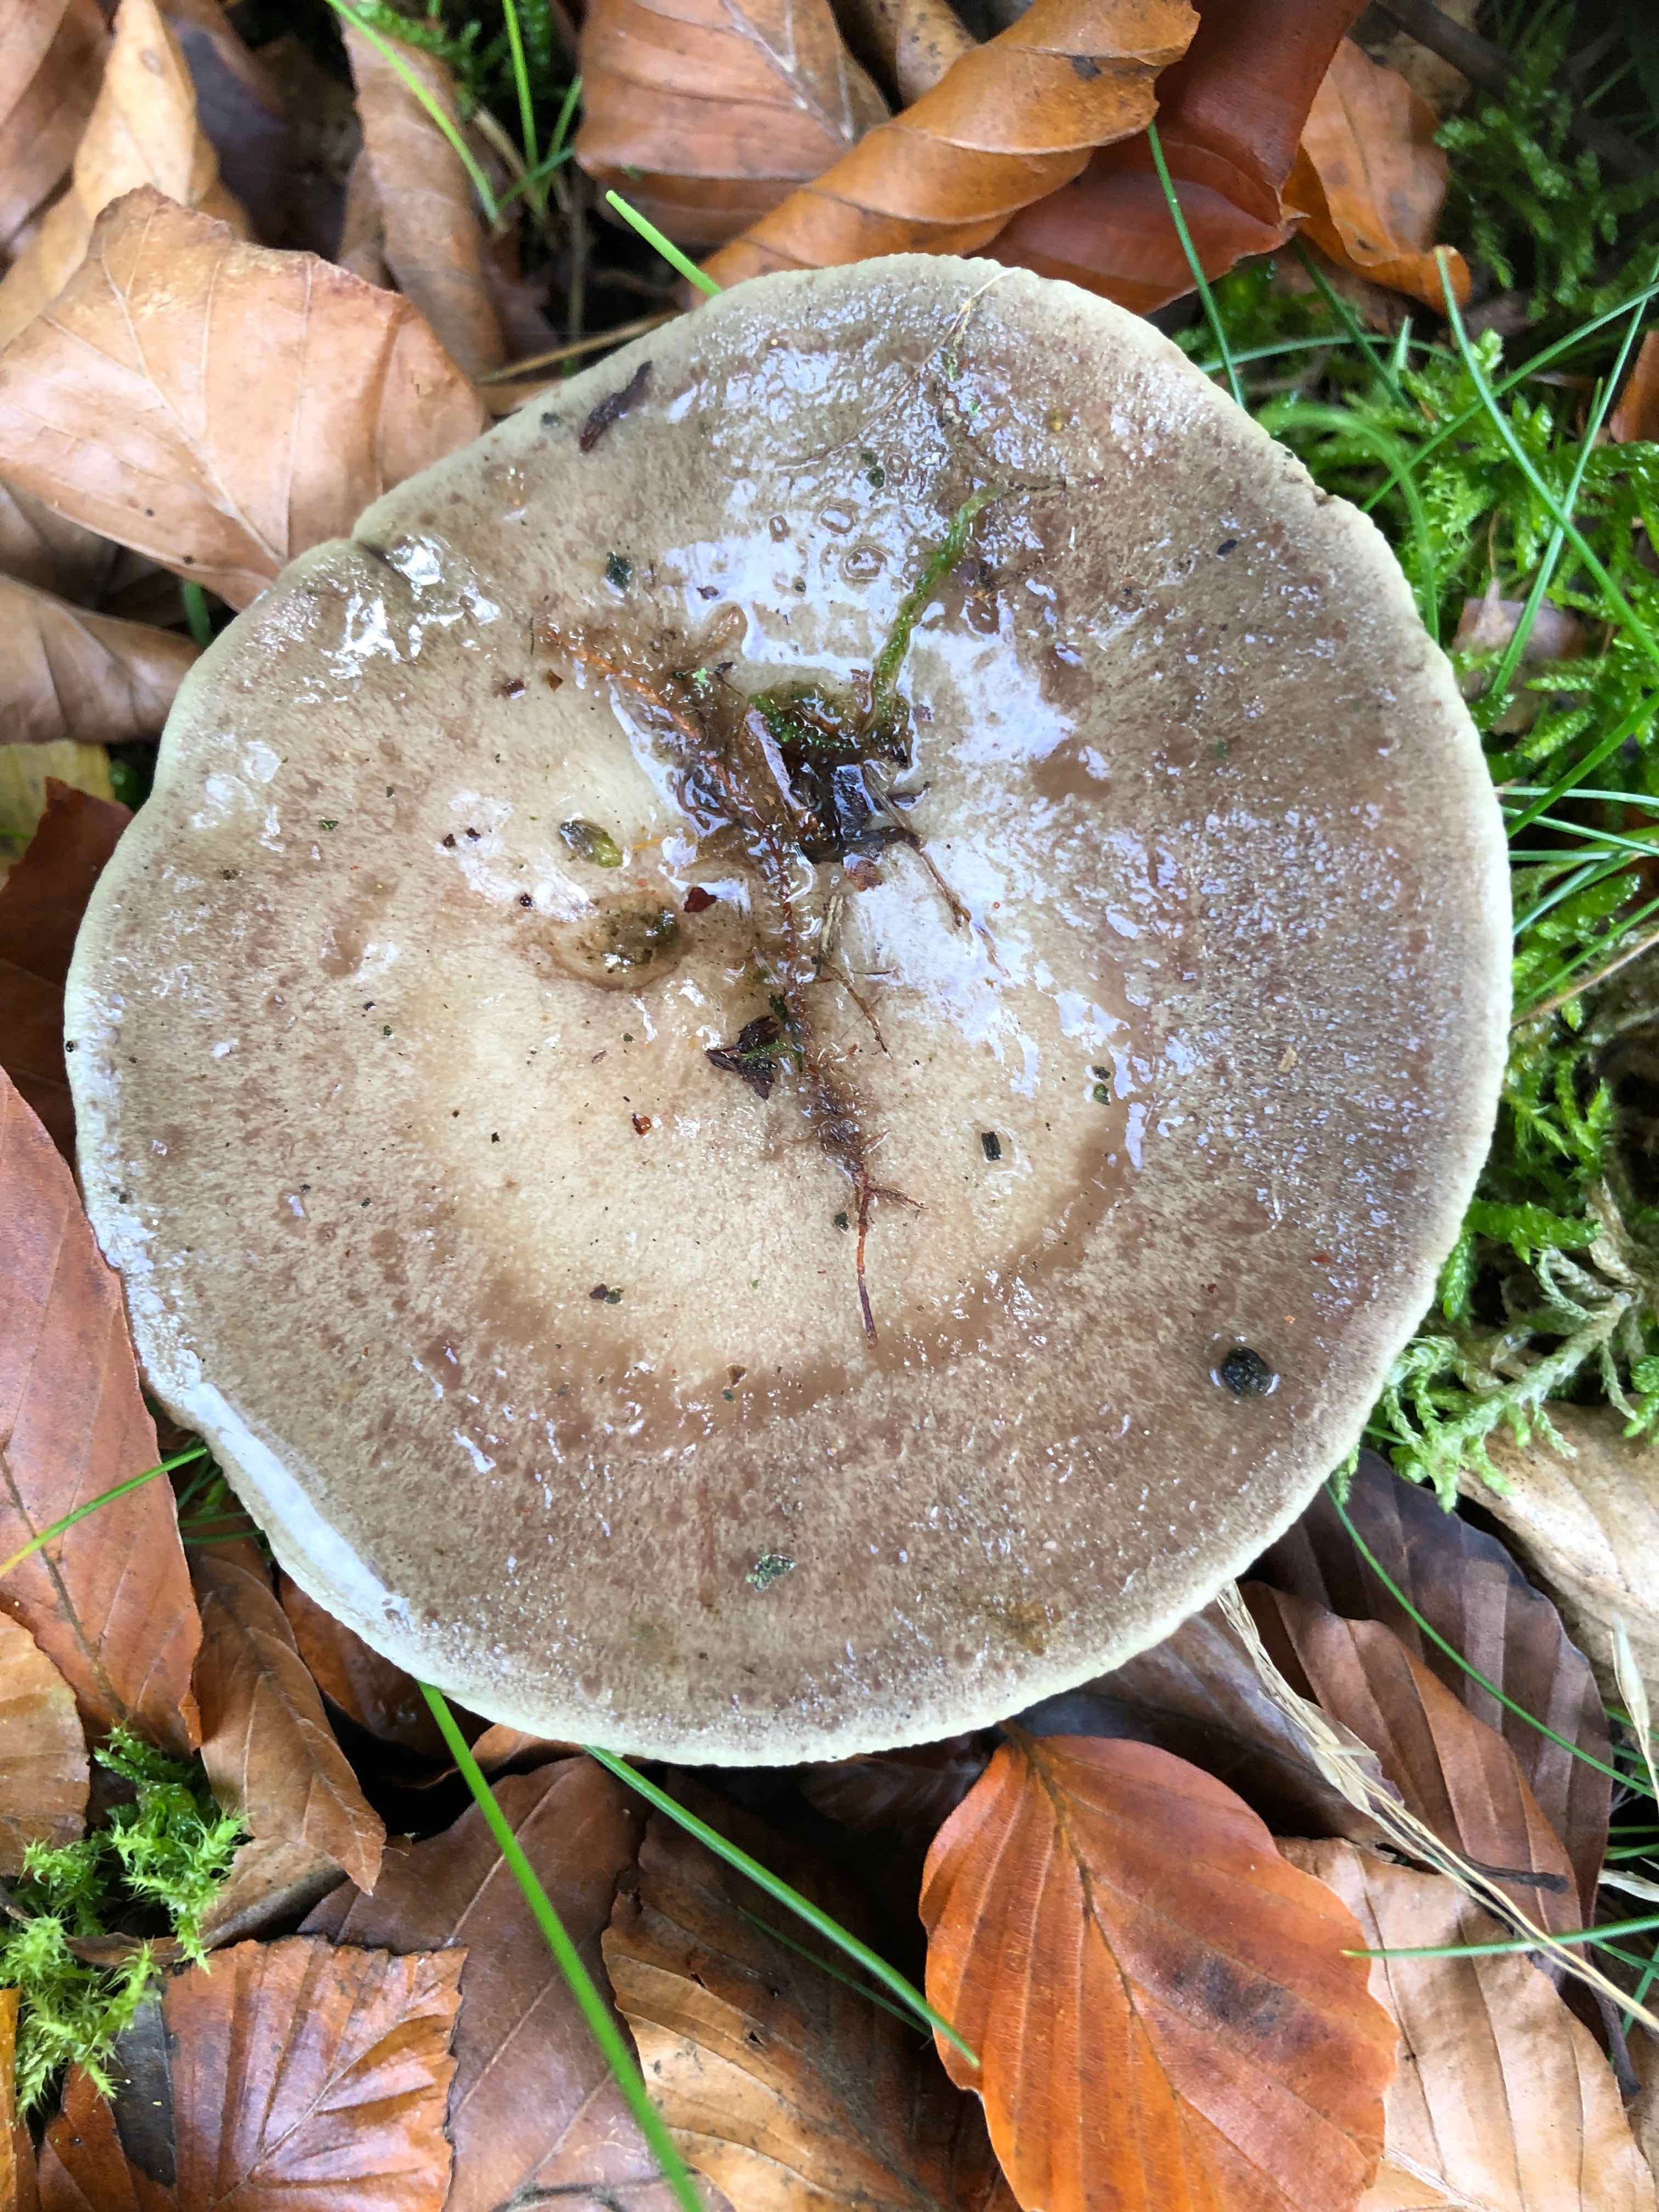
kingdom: Fungi
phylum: Basidiomycota
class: Agaricomycetes
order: Russulales
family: Russulaceae
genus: Lactarius
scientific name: Lactarius fluens
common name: lysrandet mælkehat
